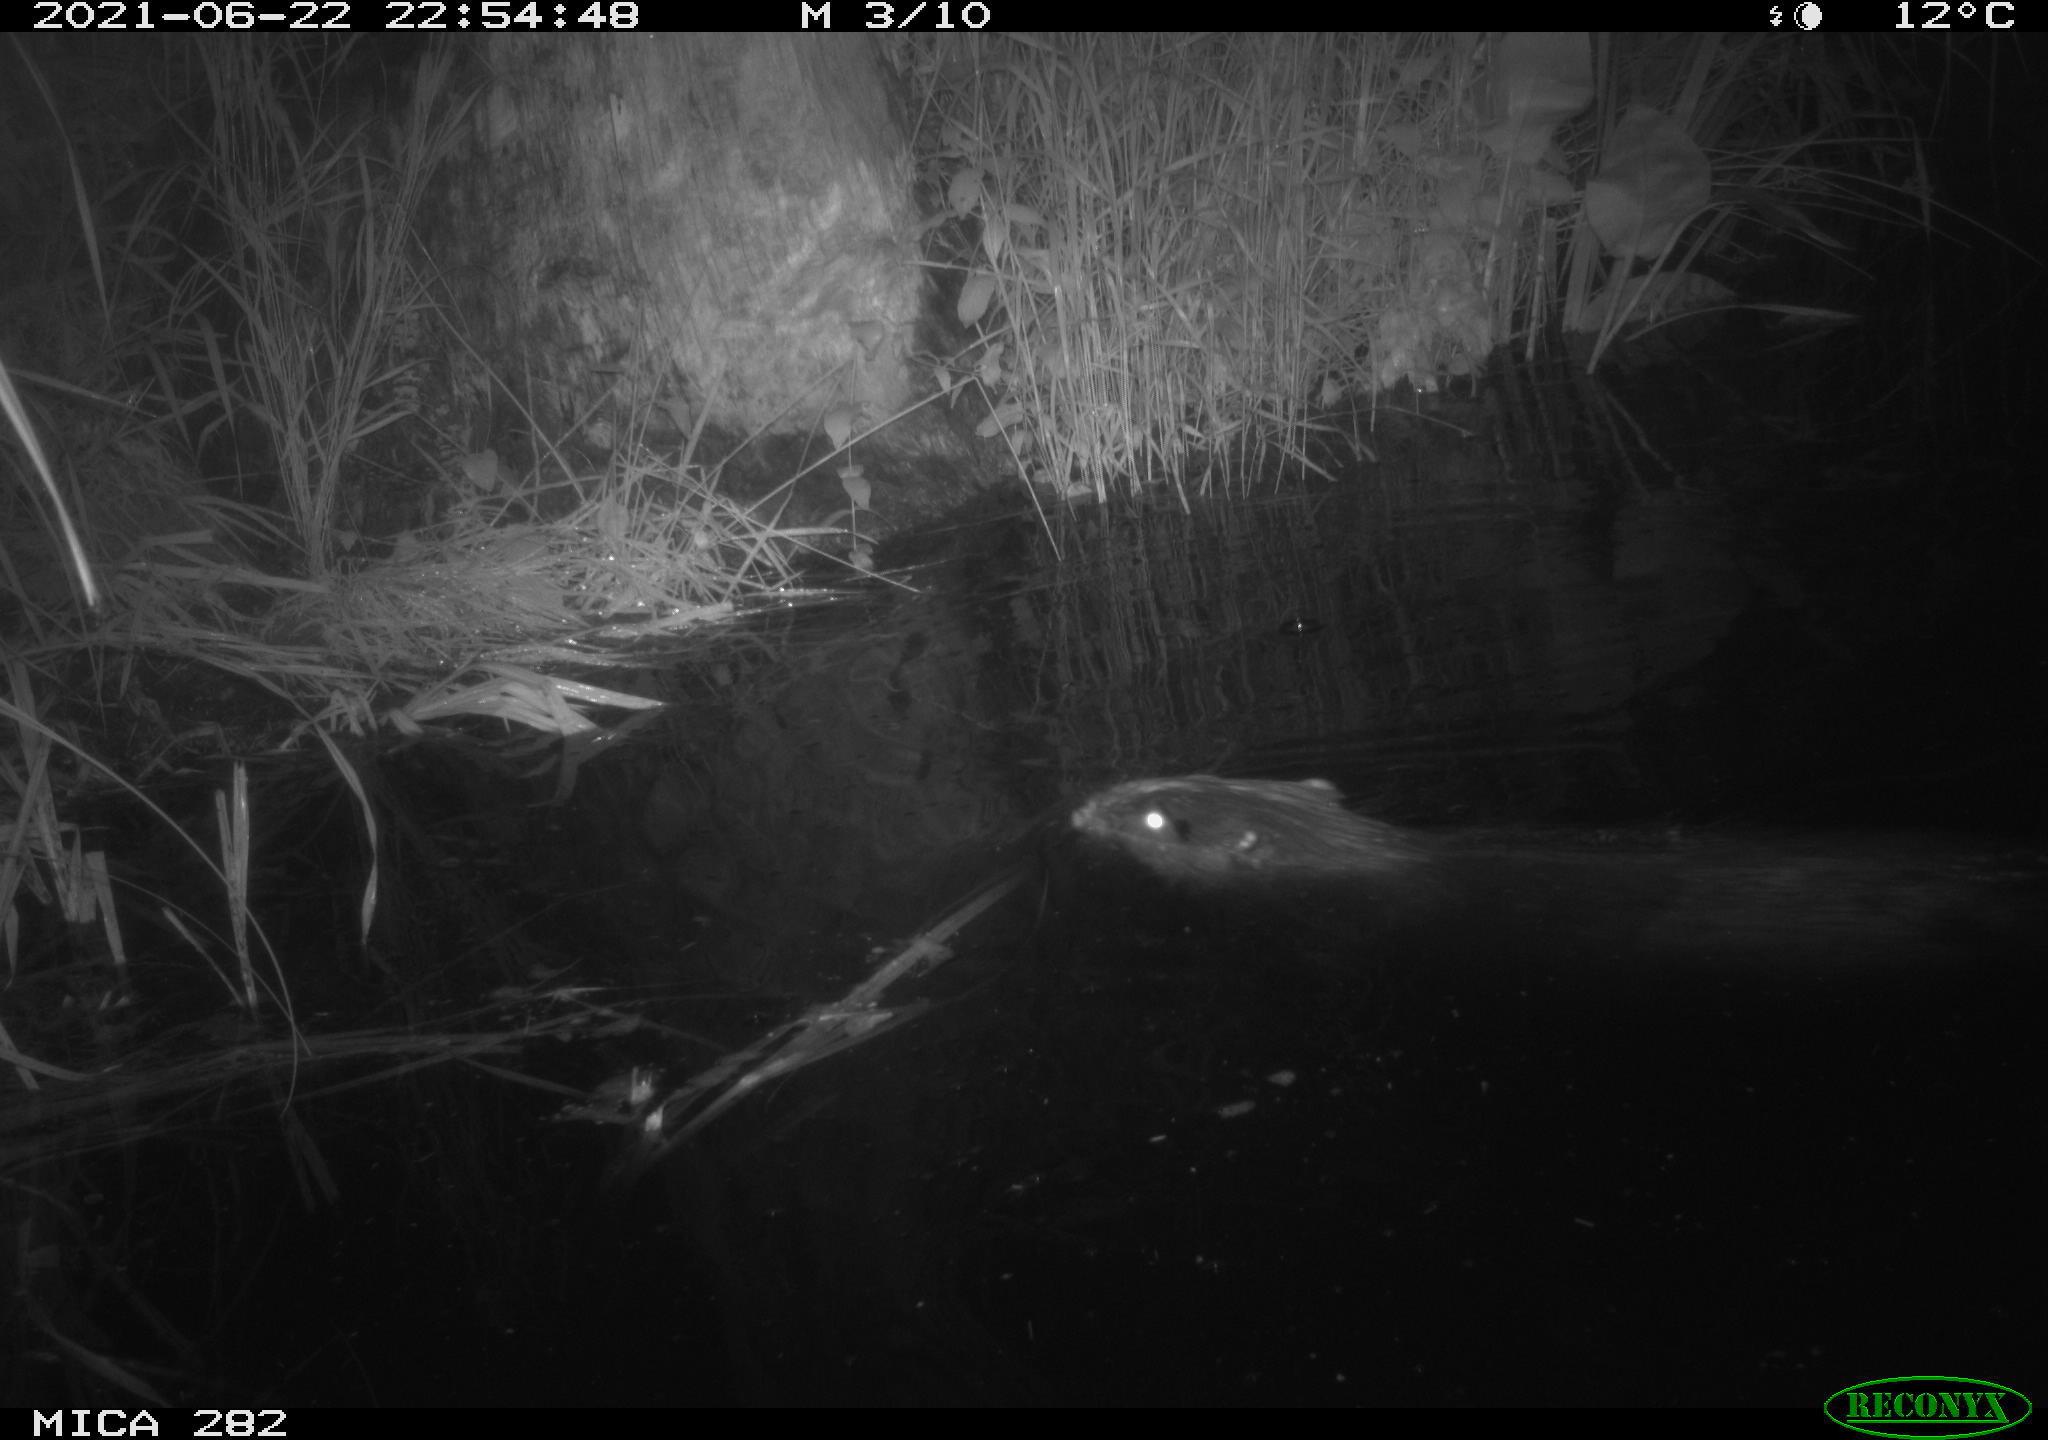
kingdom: Animalia
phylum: Chordata
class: Mammalia
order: Rodentia
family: Castoridae
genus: Castor
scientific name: Castor fiber
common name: Eurasian beaver
